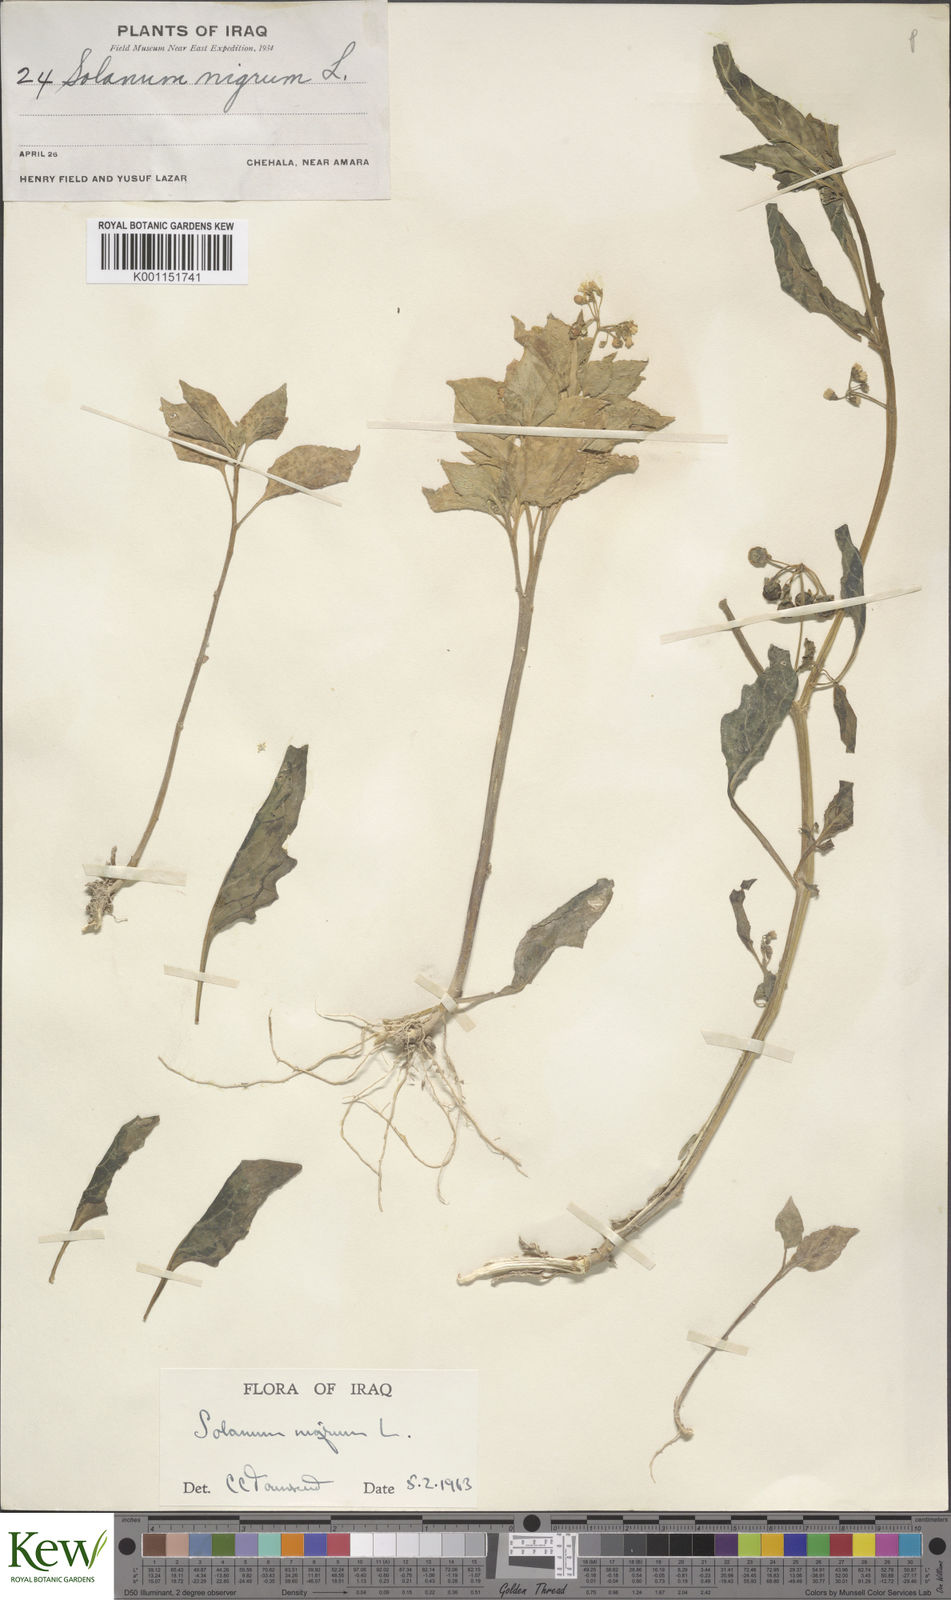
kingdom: Plantae
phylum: Tracheophyta
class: Magnoliopsida
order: Solanales
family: Solanaceae
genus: Solanum
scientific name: Solanum nigrum
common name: Black nightshade
